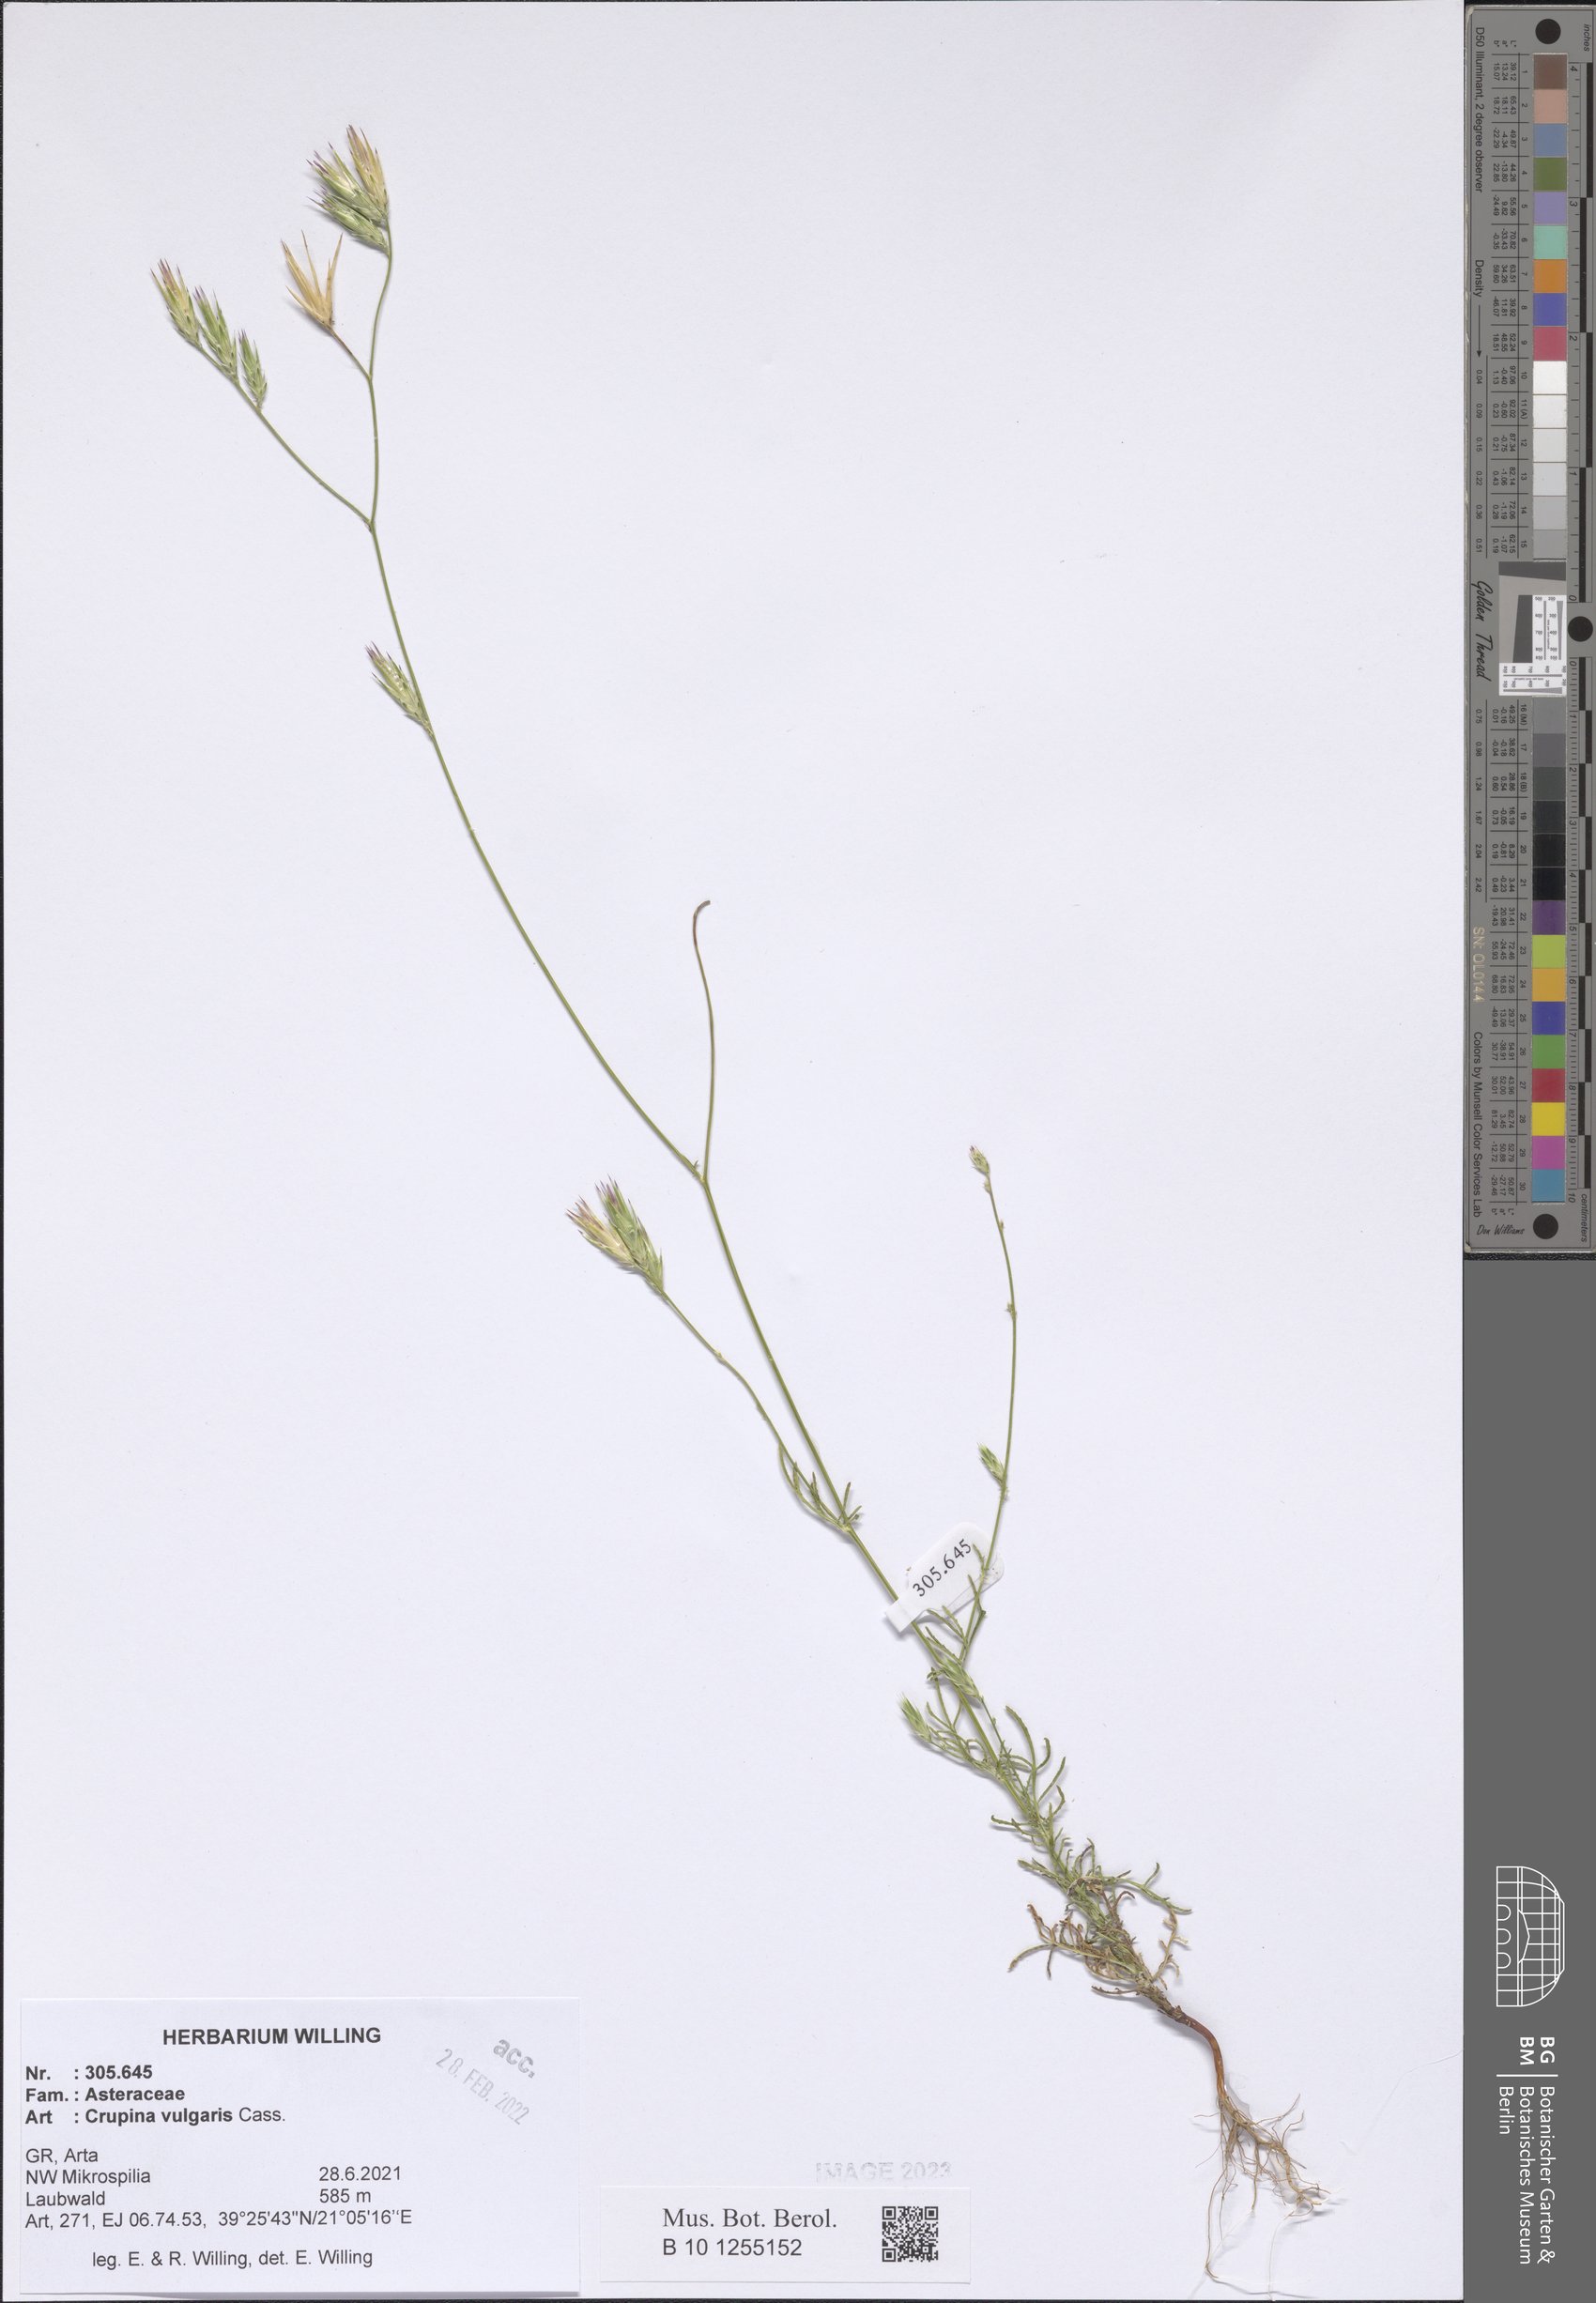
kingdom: Plantae
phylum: Tracheophyta
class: Magnoliopsida
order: Asterales
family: Asteraceae
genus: Crupina
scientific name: Crupina vulgaris
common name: Common crupina
